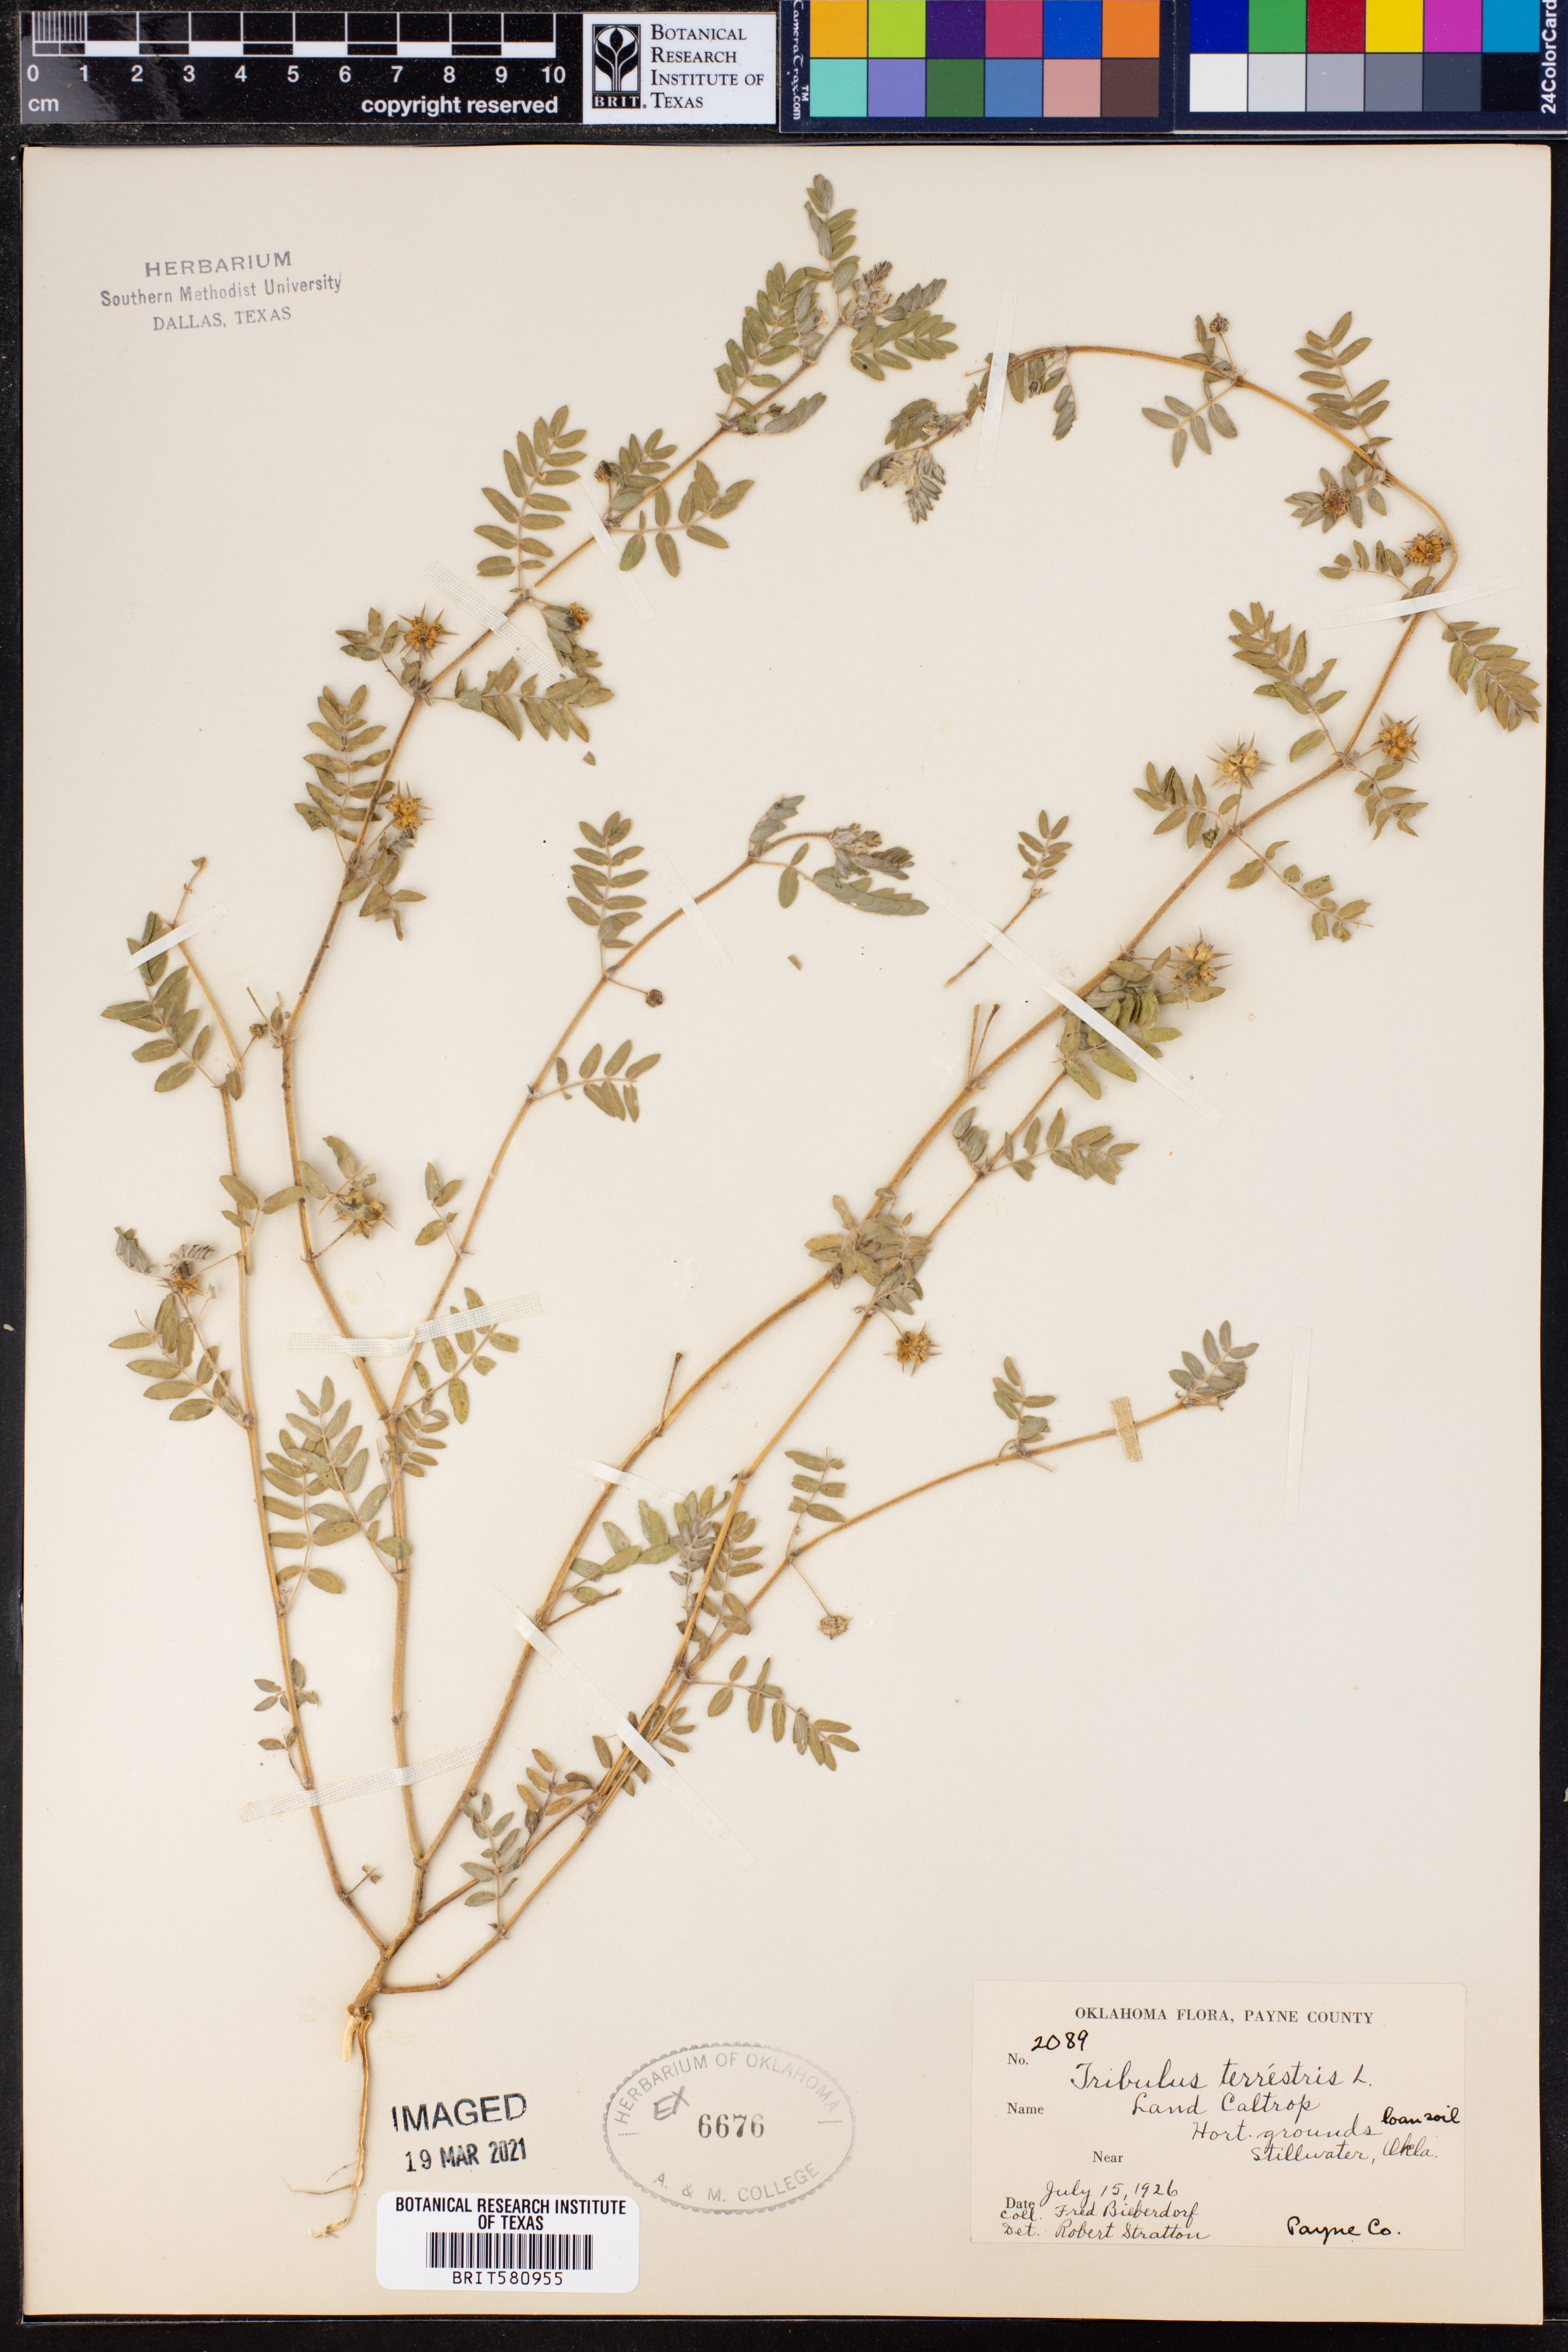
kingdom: Plantae
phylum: Tracheophyta
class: Magnoliopsida
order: Zygophyllales
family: Zygophyllaceae
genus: Tribulus
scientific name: Tribulus terrestris
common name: Puncturevine
